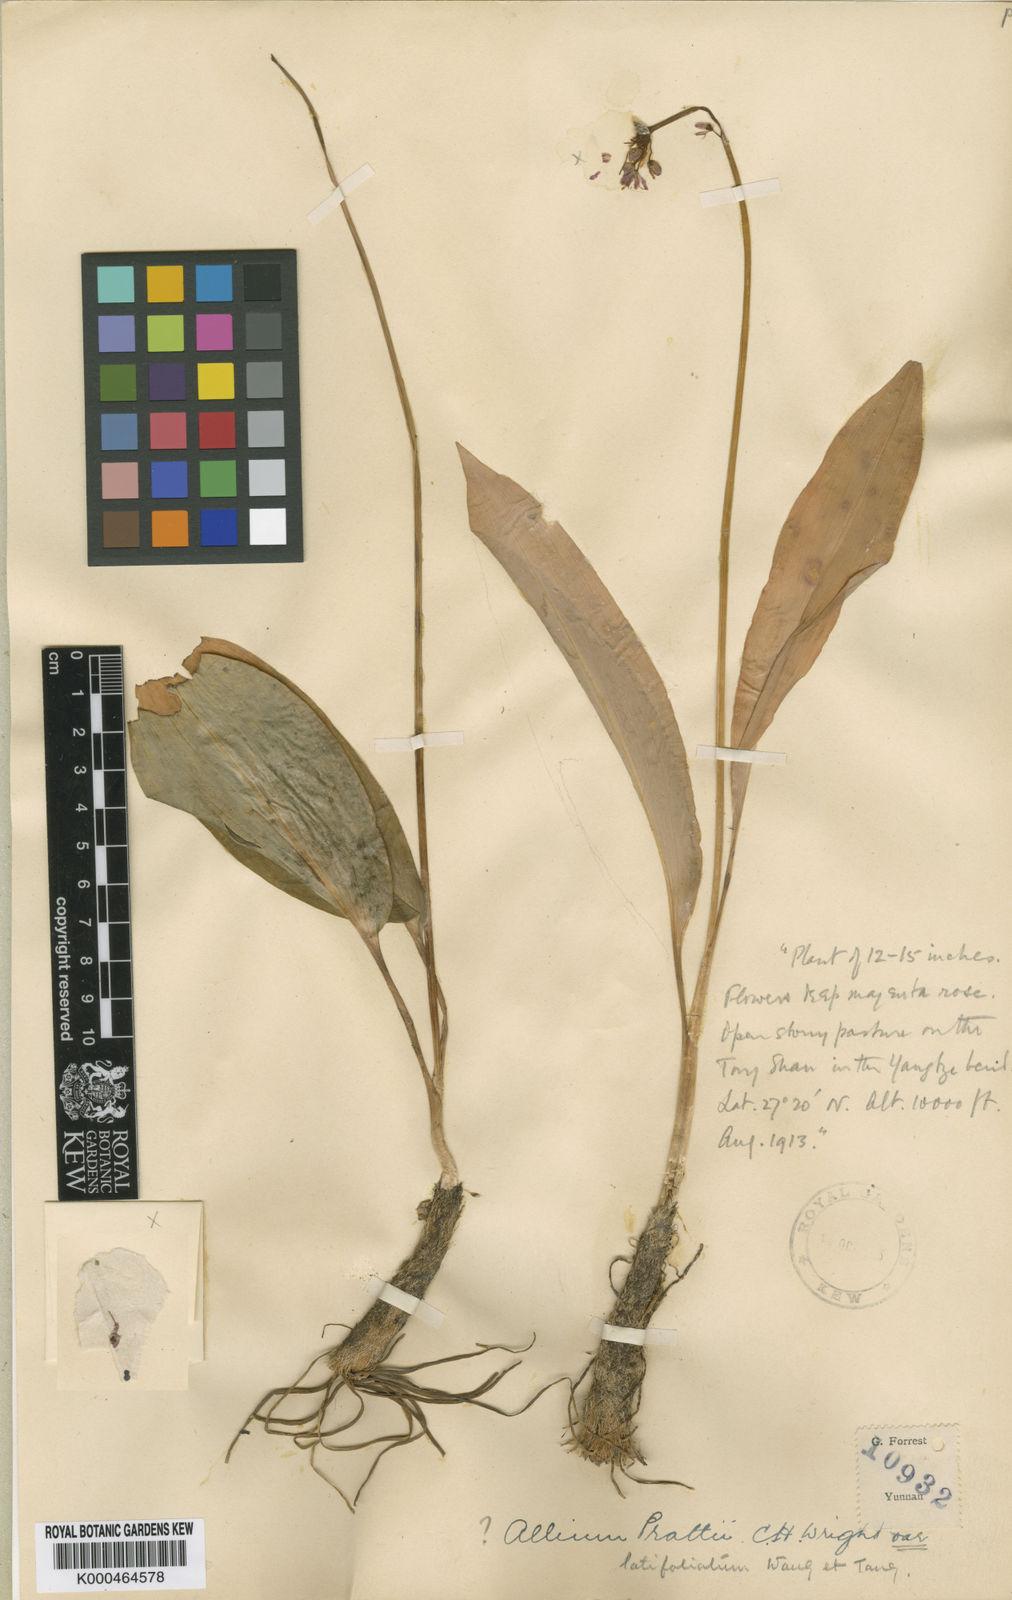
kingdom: Plantae
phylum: Tracheophyta
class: Liliopsida
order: Asparagales
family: Amaryllidaceae
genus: Allium
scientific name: Allium prattii
